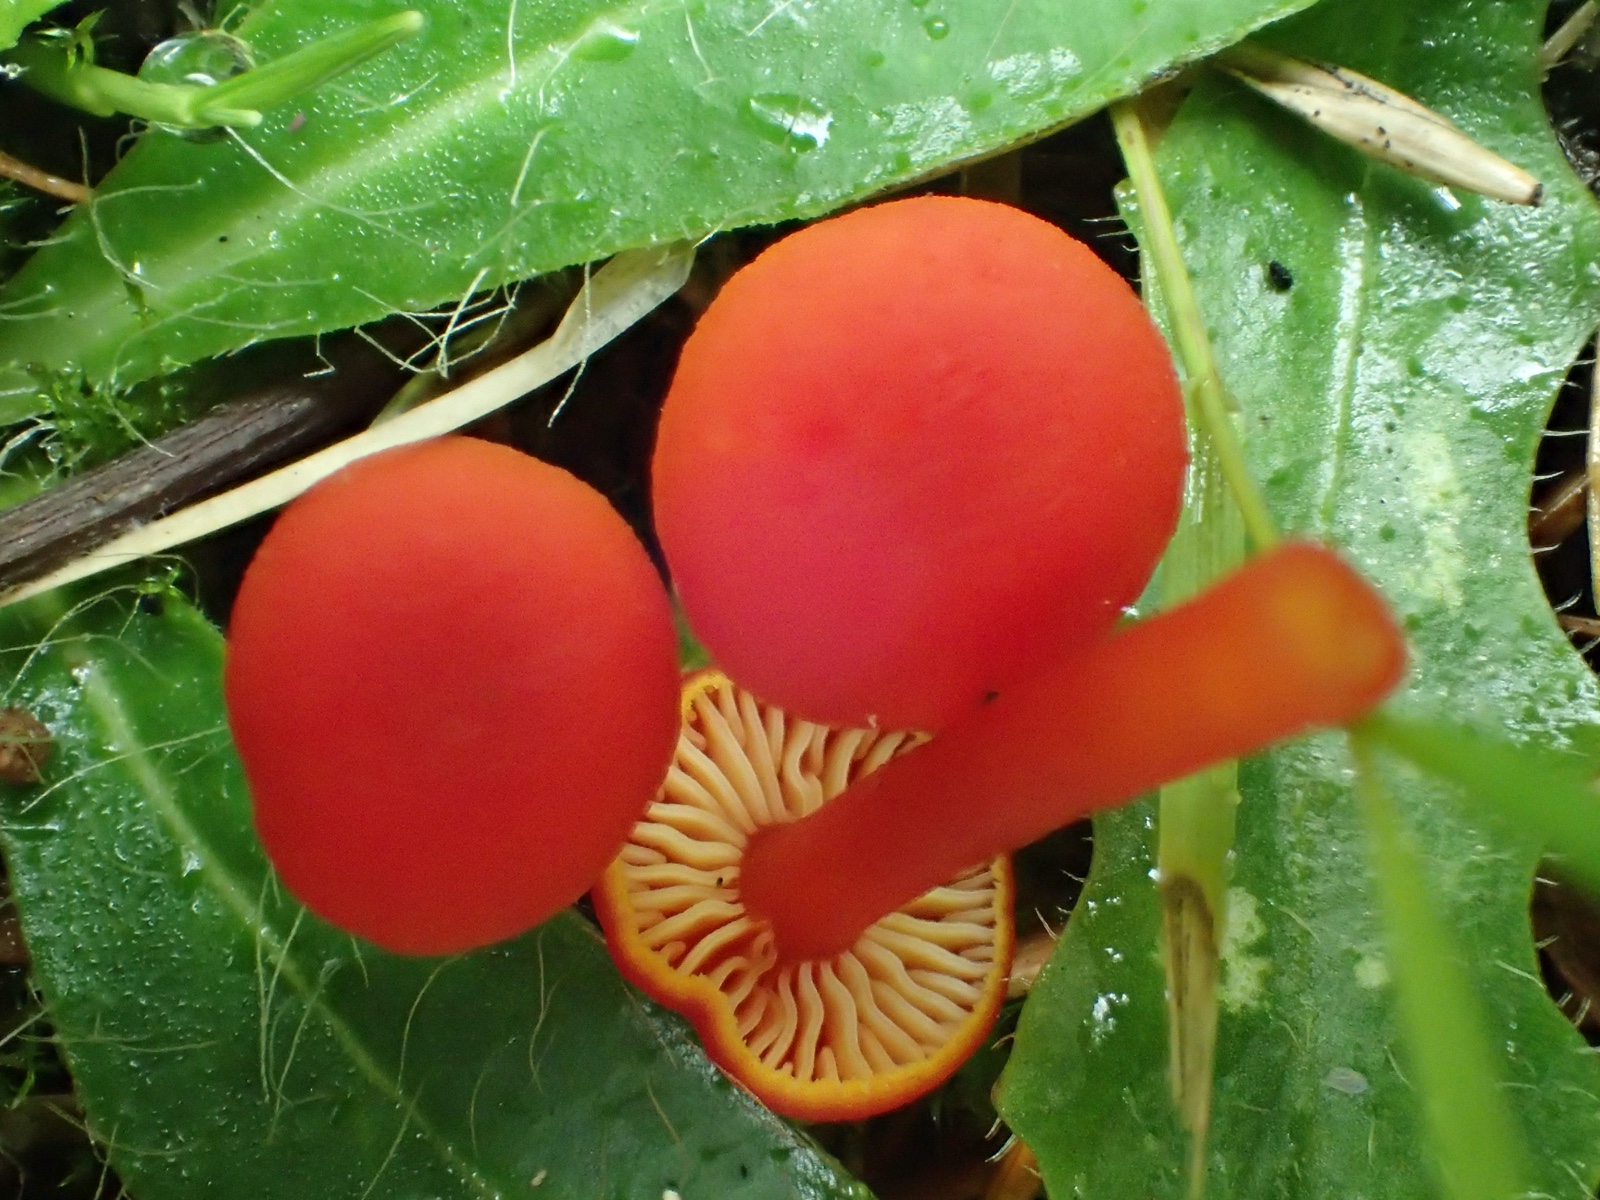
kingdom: Fungi
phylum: Basidiomycota
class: Agaricomycetes
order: Agaricales
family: Hygrophoraceae
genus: Hygrocybe
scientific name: Hygrocybe miniata
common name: mønje-vokshat
